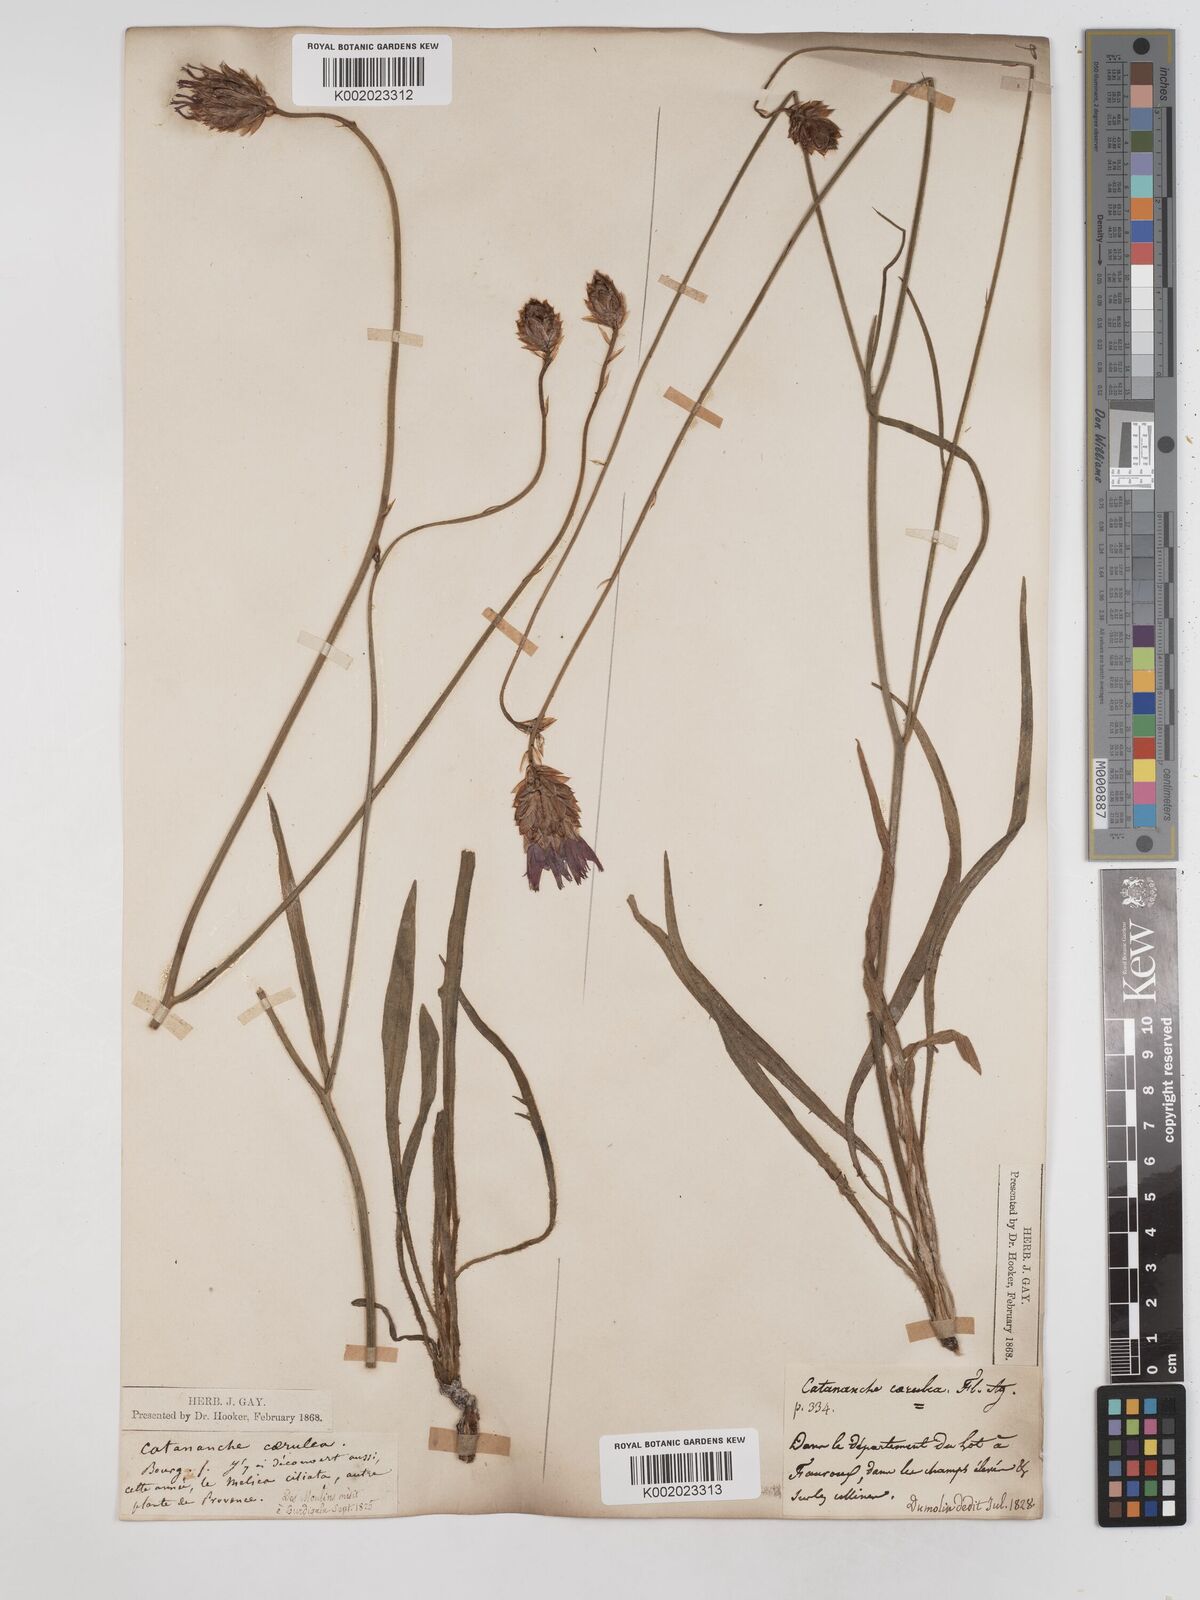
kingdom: Plantae
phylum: Tracheophyta
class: Magnoliopsida
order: Asterales
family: Asteraceae
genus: Catananche
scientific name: Catananche caerulea
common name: Blue cupidone
